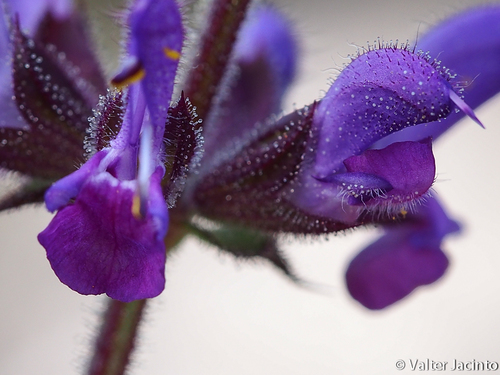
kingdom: Plantae
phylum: Tracheophyta
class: Magnoliopsida
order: Lamiales
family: Lamiaceae
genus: Salvia
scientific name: Salvia verbenaca
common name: Wild clary
